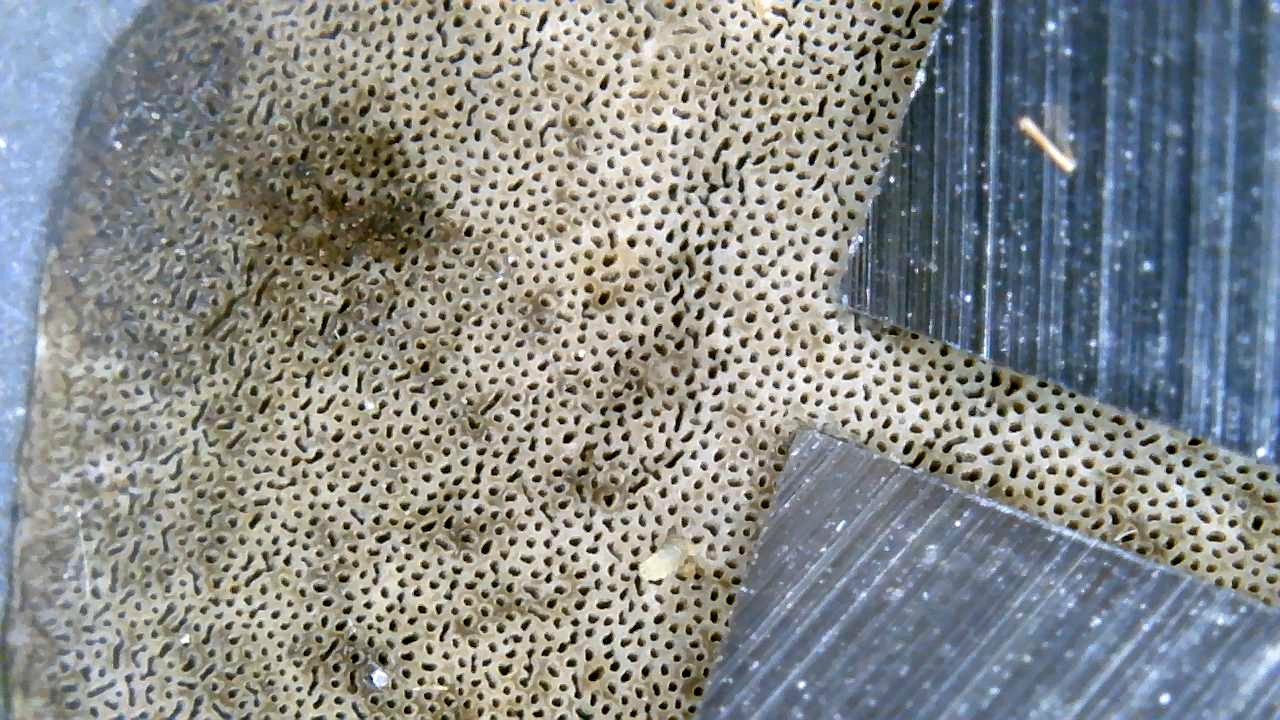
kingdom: Fungi
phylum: Basidiomycota
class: Agaricomycetes
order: Polyporales
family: Phanerochaetaceae
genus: Bjerkandera
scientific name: Bjerkandera fumosa
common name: grågul sodporesvamp
